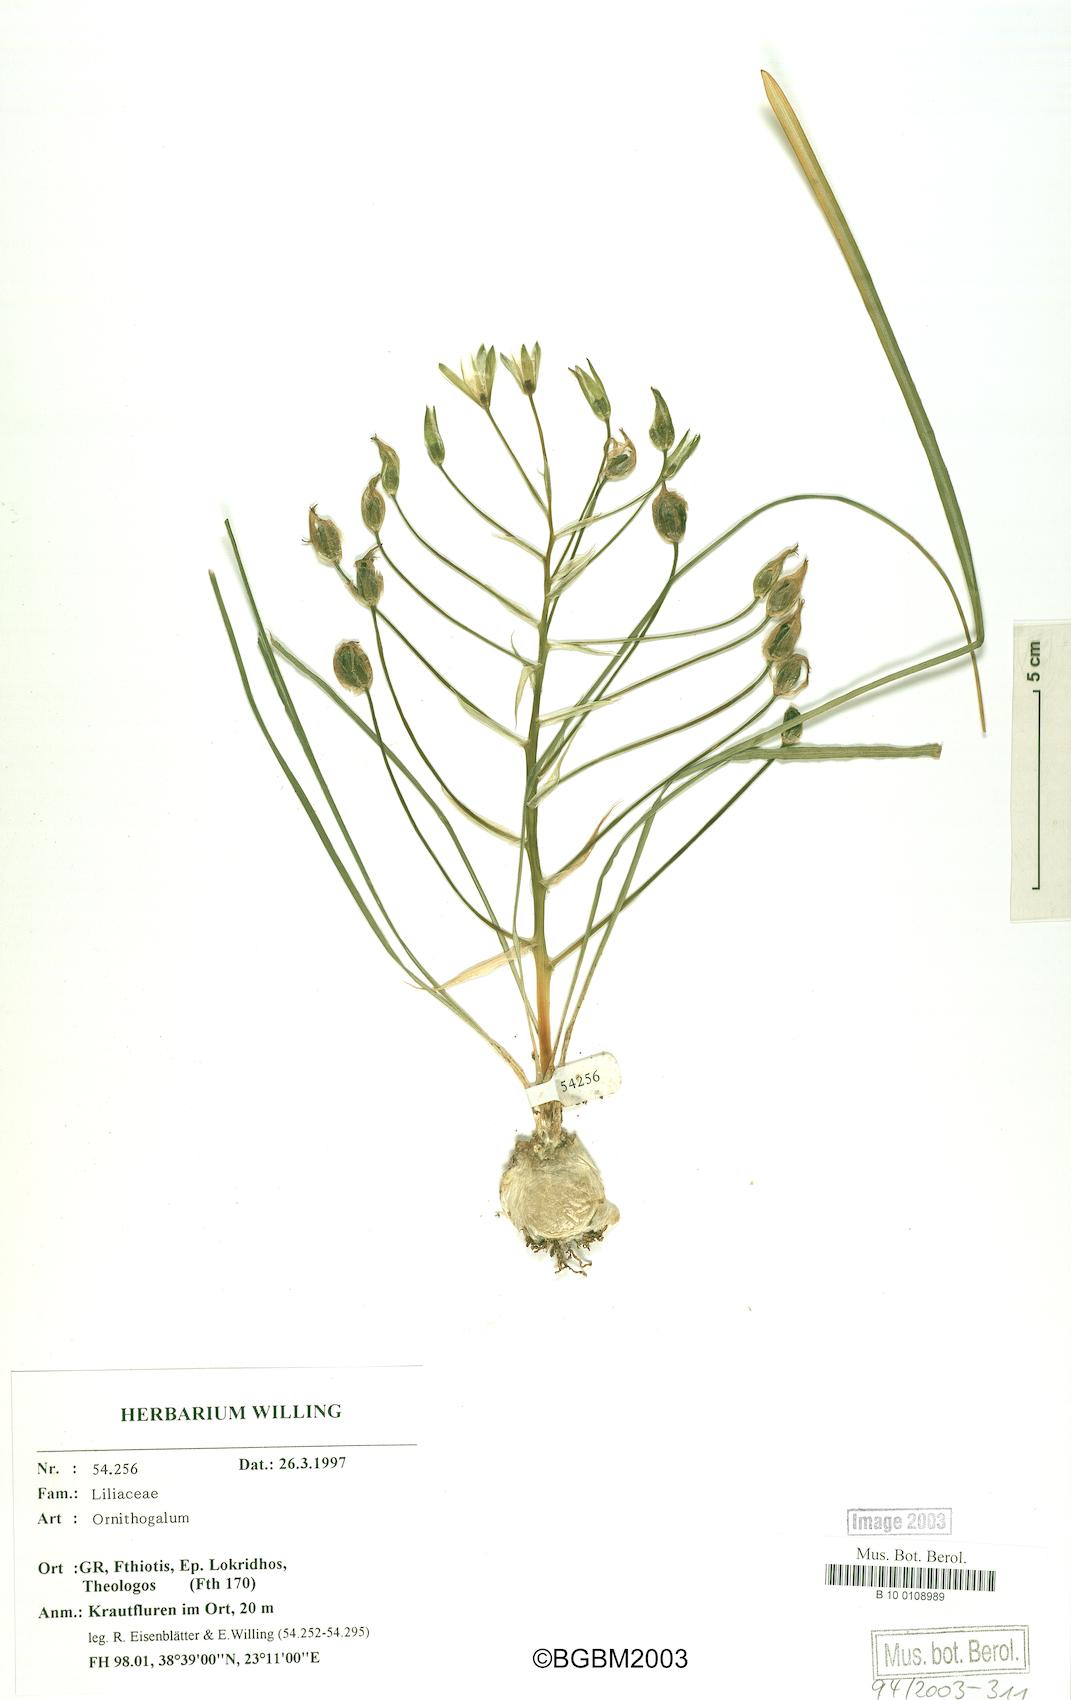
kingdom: Plantae
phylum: Tracheophyta
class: Liliopsida
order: Asparagales
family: Asparagaceae
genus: Ornithogalum
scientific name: Ornithogalum
